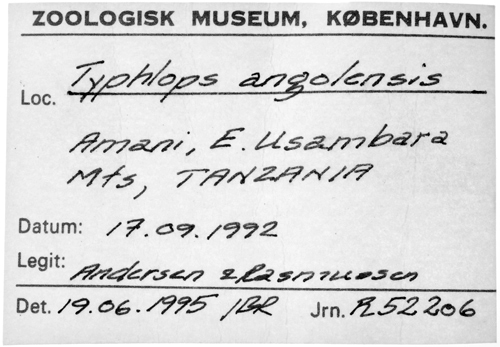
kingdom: Animalia
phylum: Chordata
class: Squamata
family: Typhlopidae
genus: Afrotyphlops
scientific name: Afrotyphlops angolensis
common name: Angola blind snake
